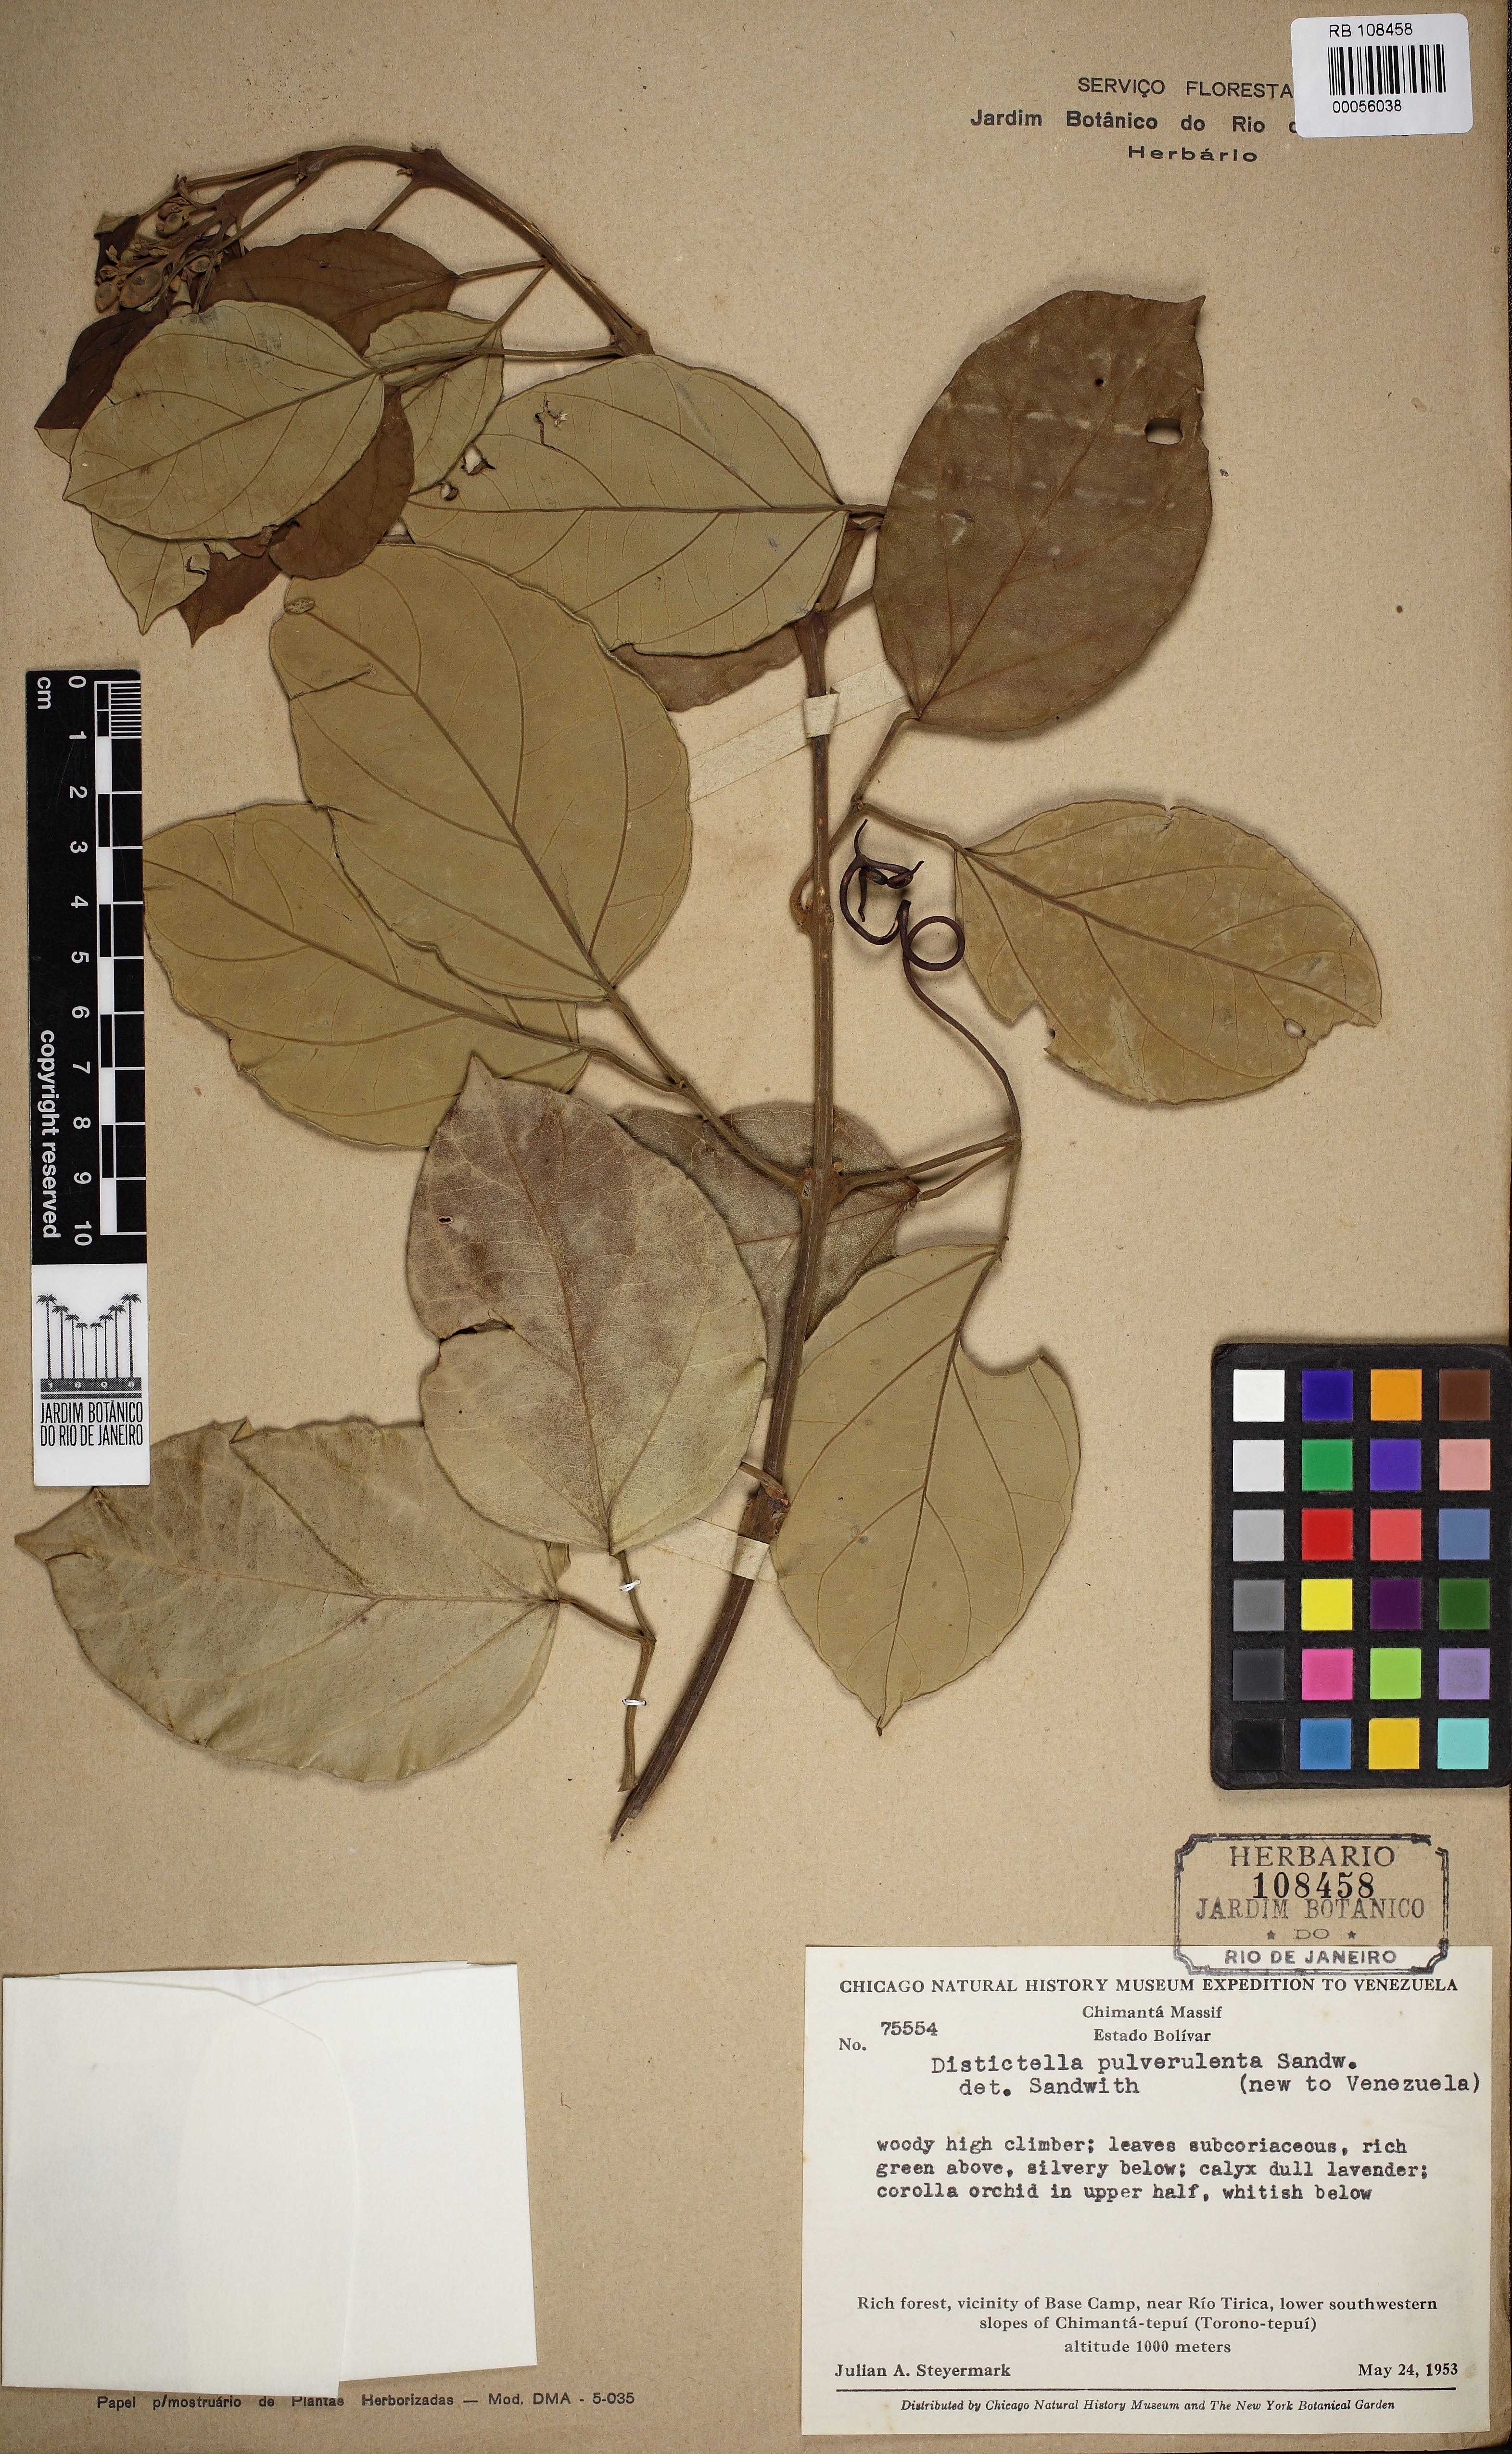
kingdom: Plantae
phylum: Tracheophyta
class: Magnoliopsida
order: Lamiales
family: Bignoniaceae
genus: Amphilophium
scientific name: Amphilophium pulverulentum
